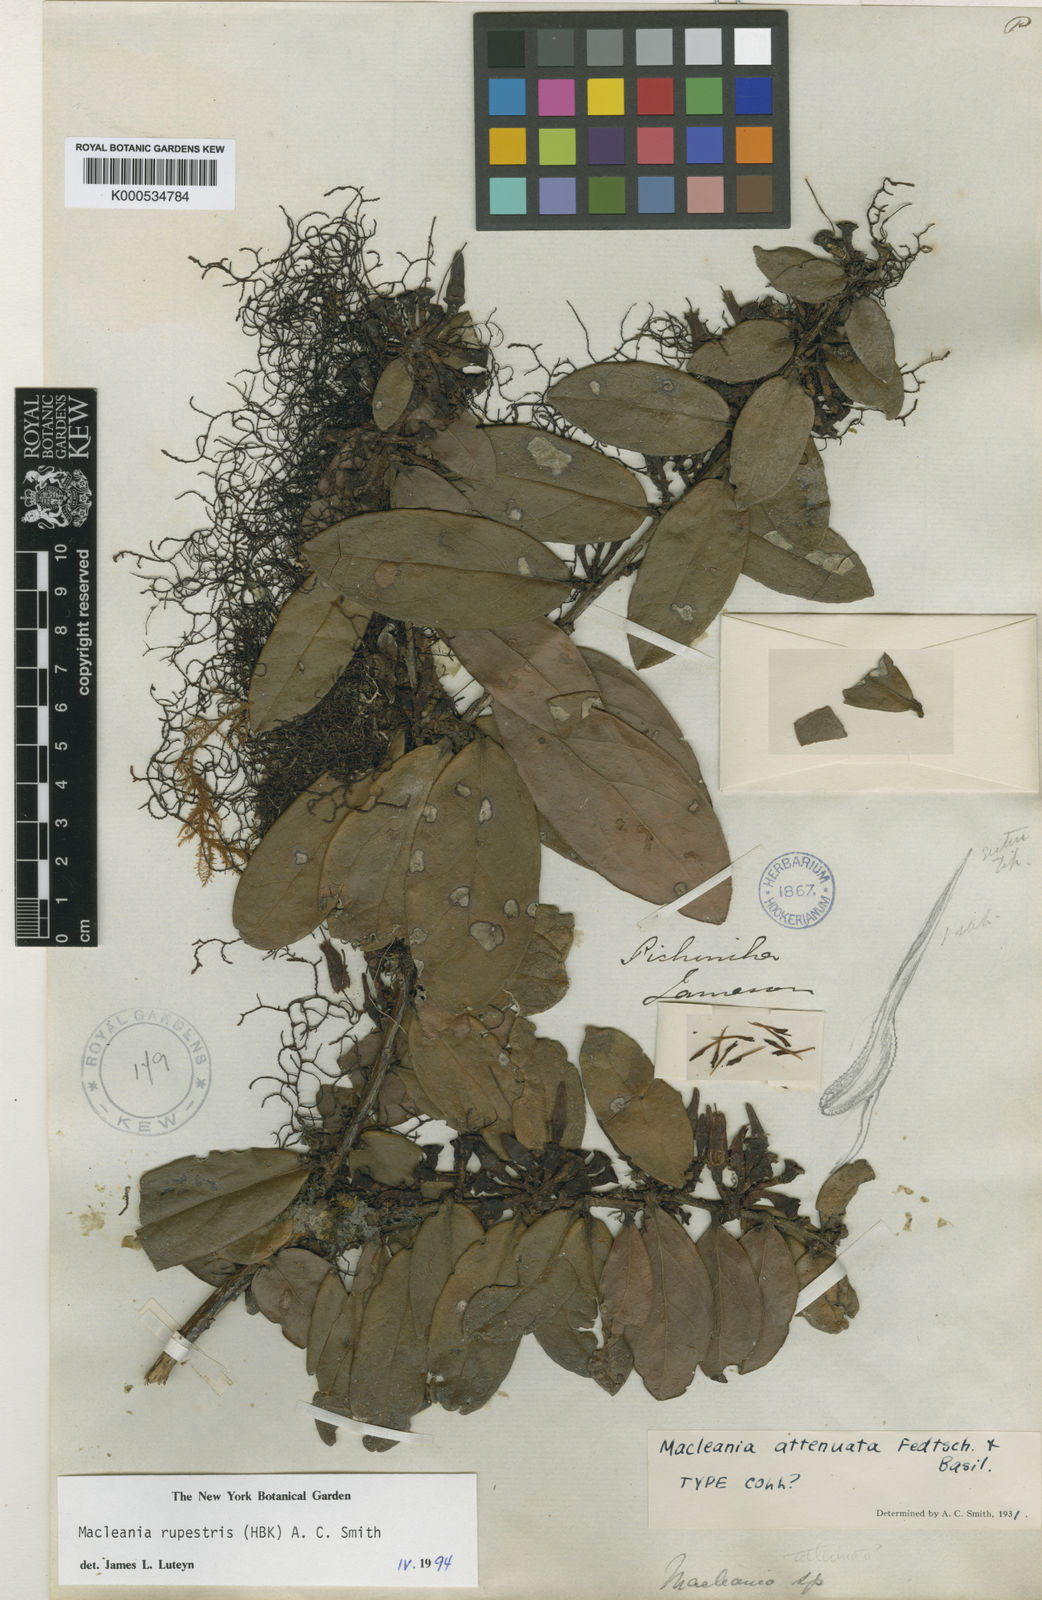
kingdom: Plantae
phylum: Tracheophyta
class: Magnoliopsida
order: Ericales
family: Ericaceae
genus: Macleania
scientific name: Macleania rupestris
